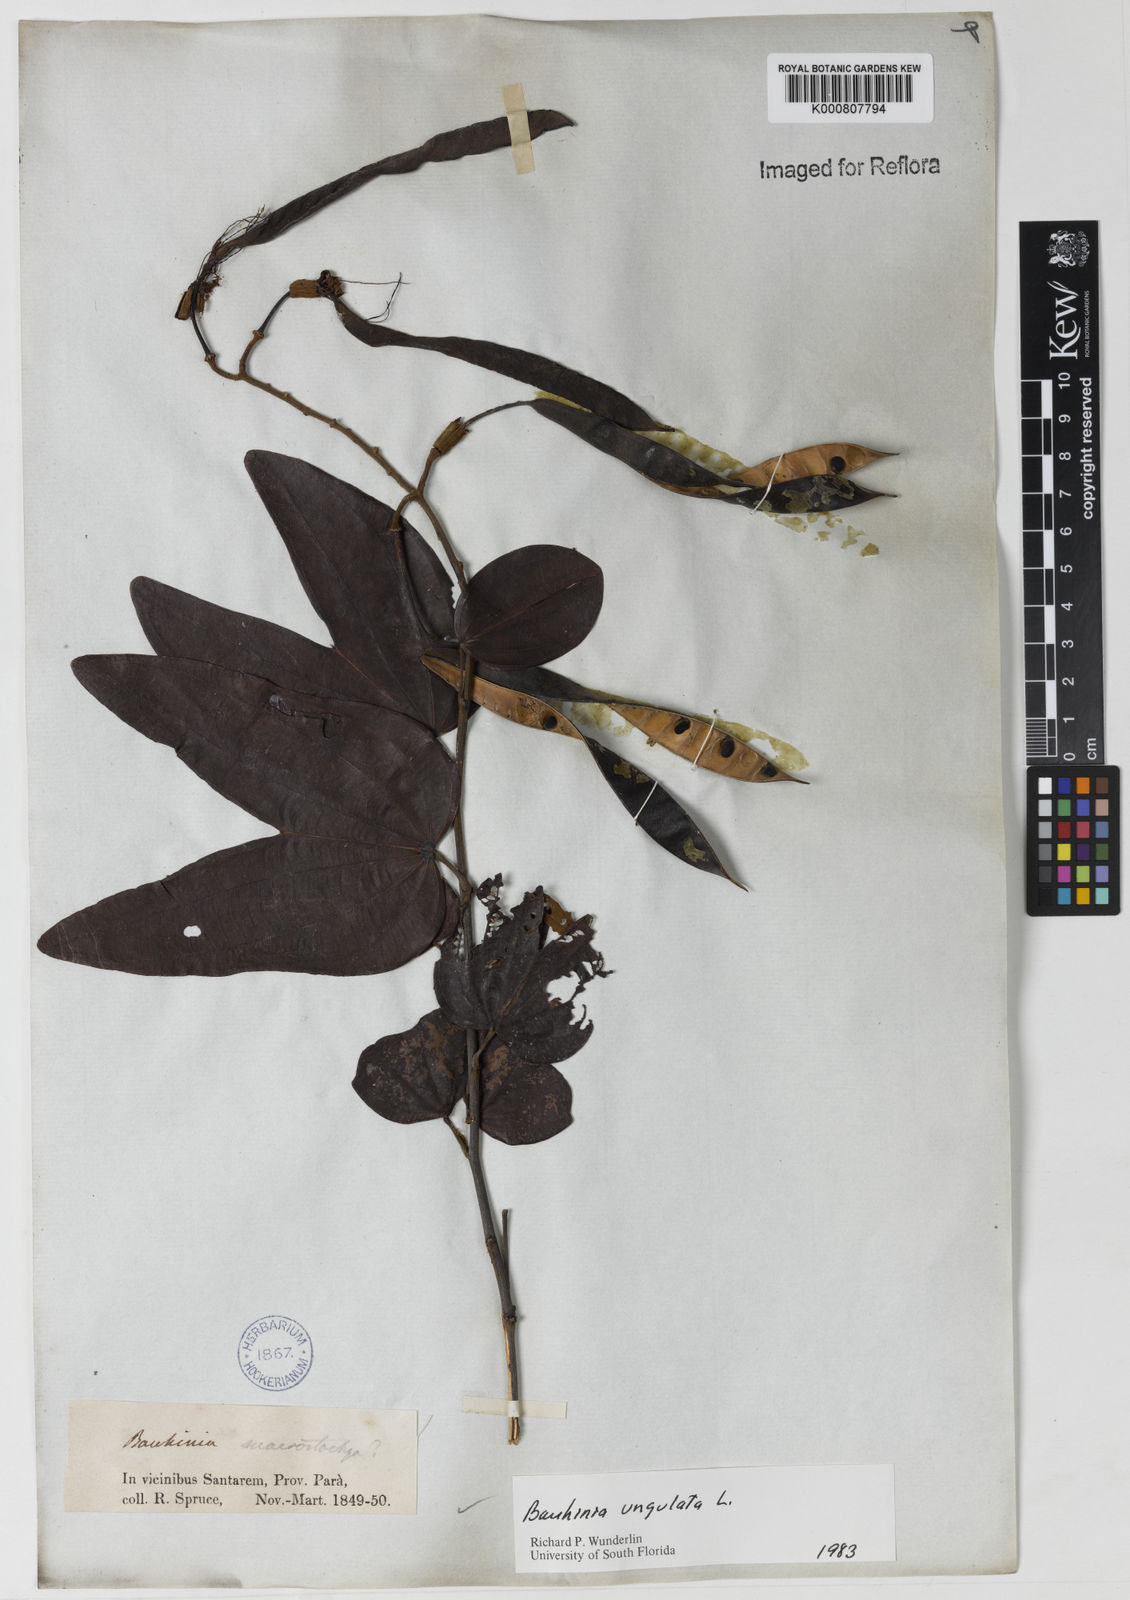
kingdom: Plantae
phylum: Tracheophyta
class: Magnoliopsida
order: Fabales
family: Fabaceae
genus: Bauhinia
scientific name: Bauhinia ungulata
